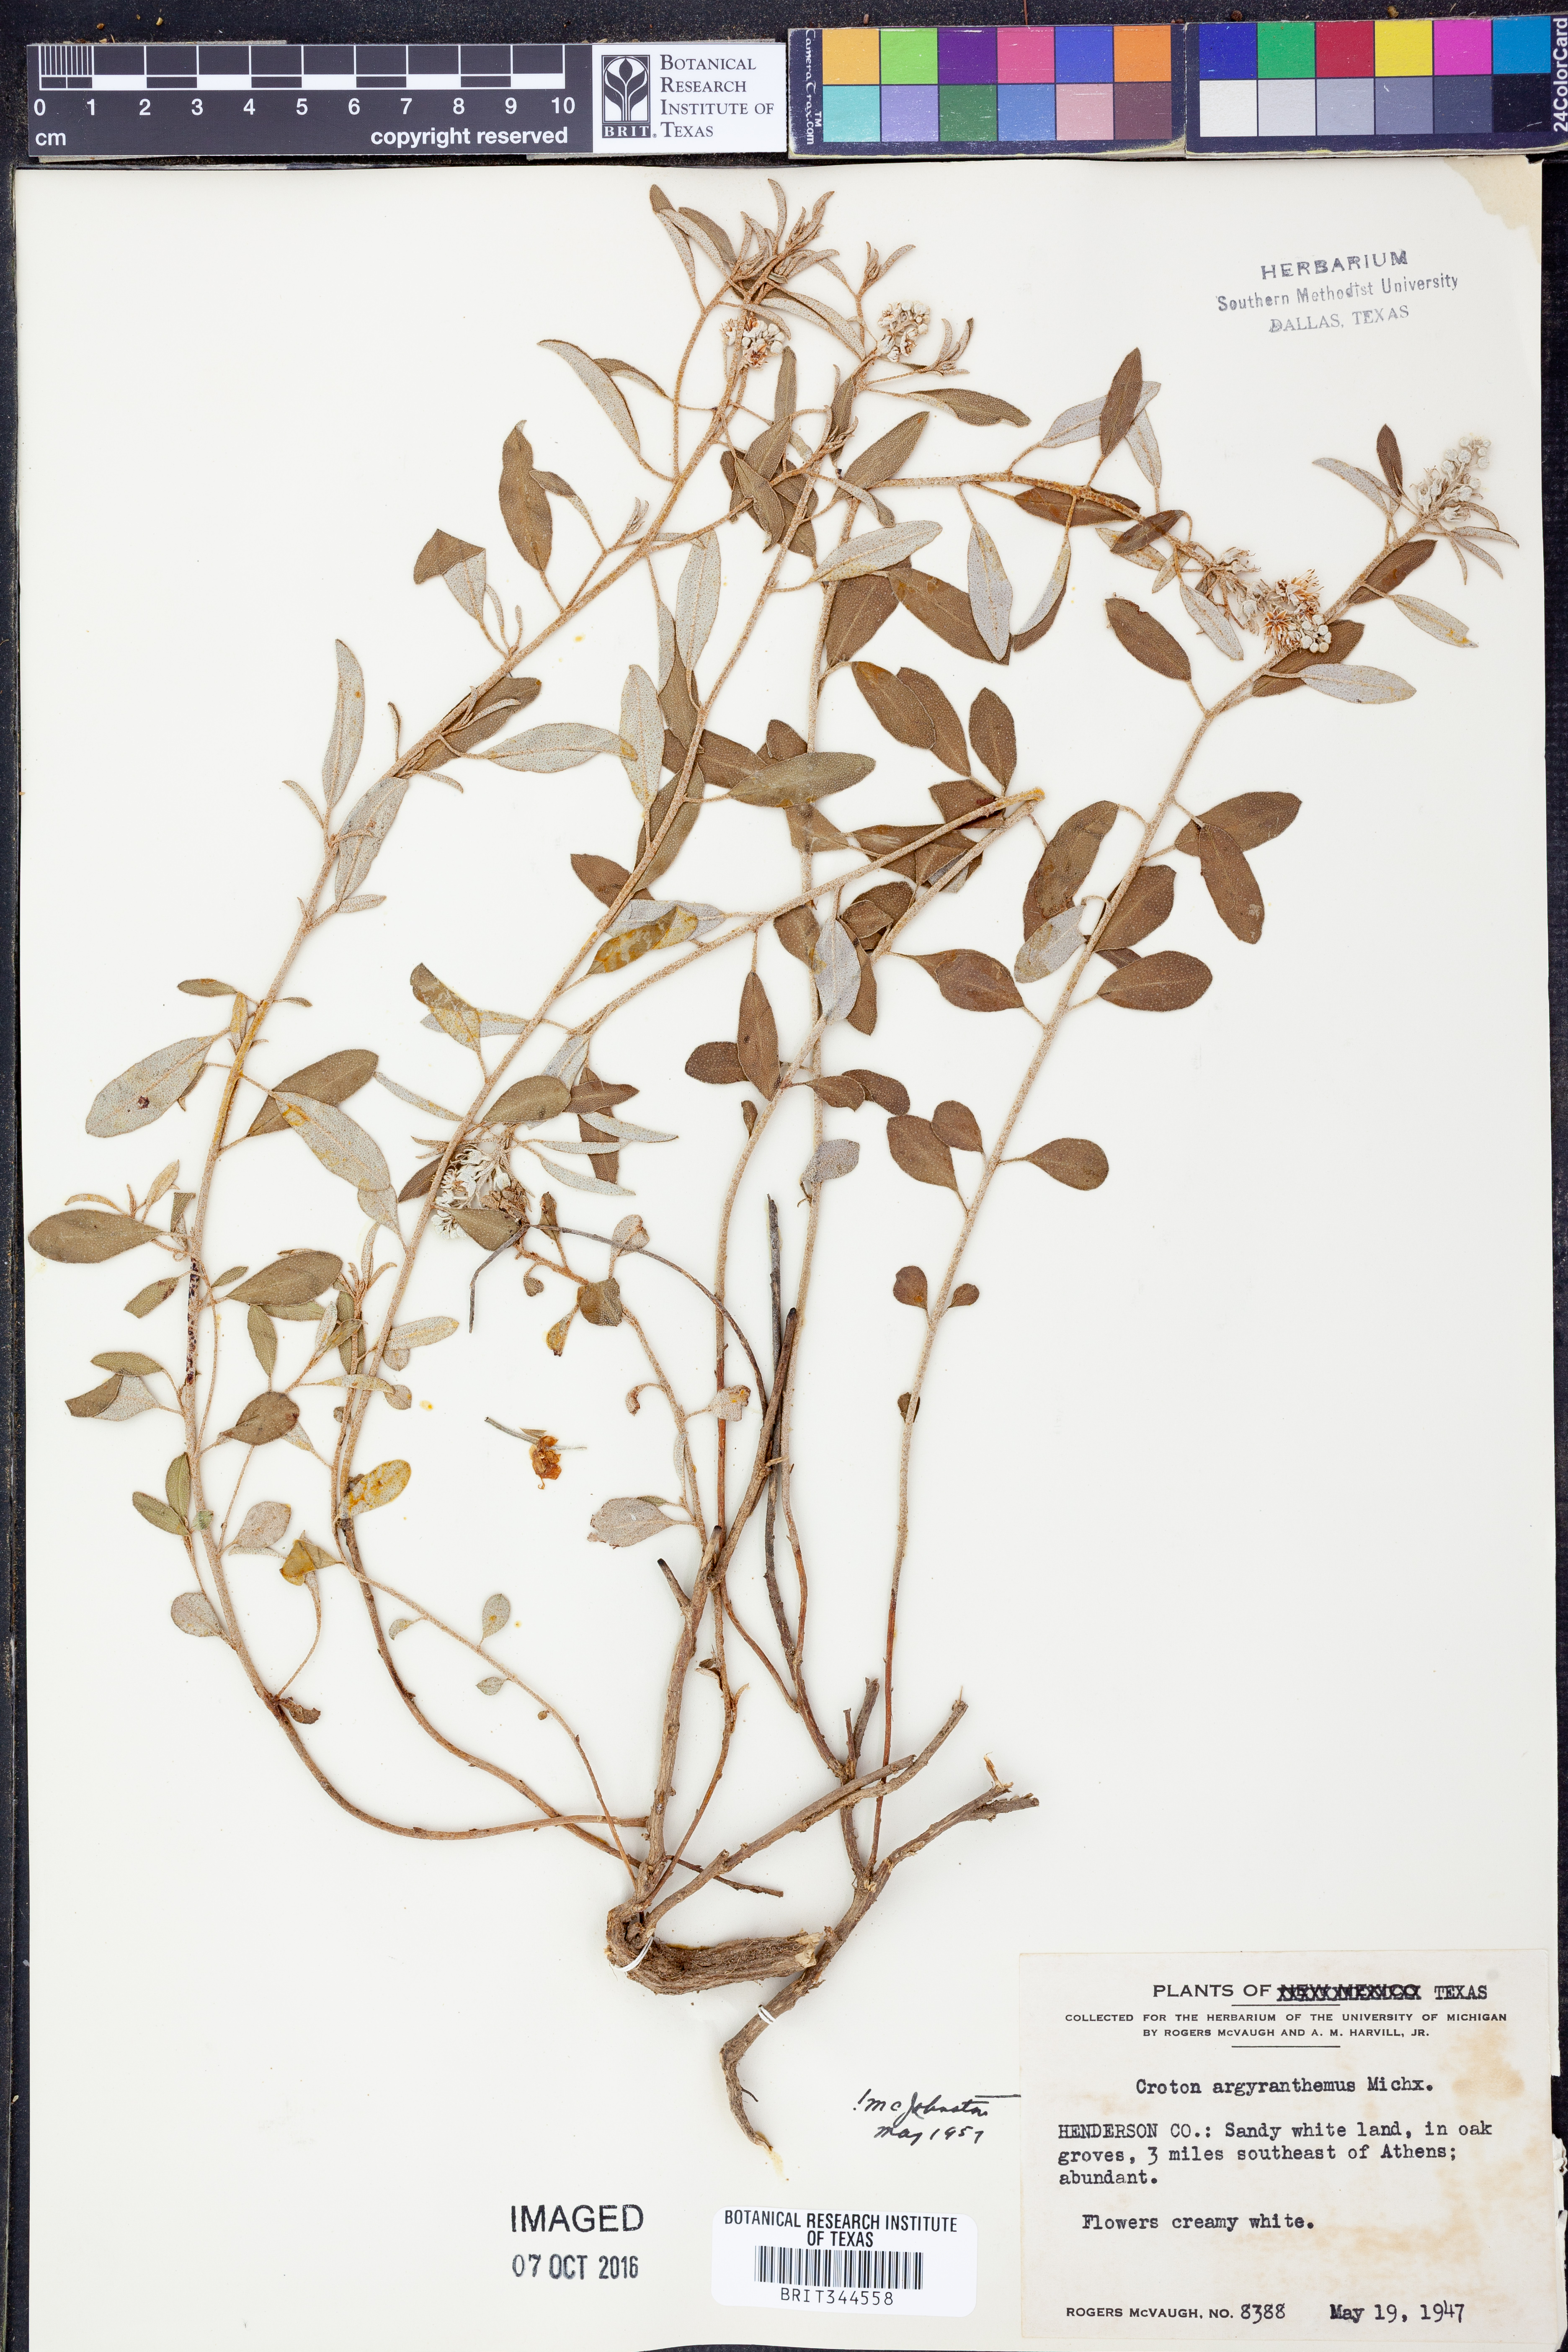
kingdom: Plantae
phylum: Tracheophyta
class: Magnoliopsida
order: Malpighiales
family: Euphorbiaceae
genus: Croton
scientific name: Croton argyranthemus
